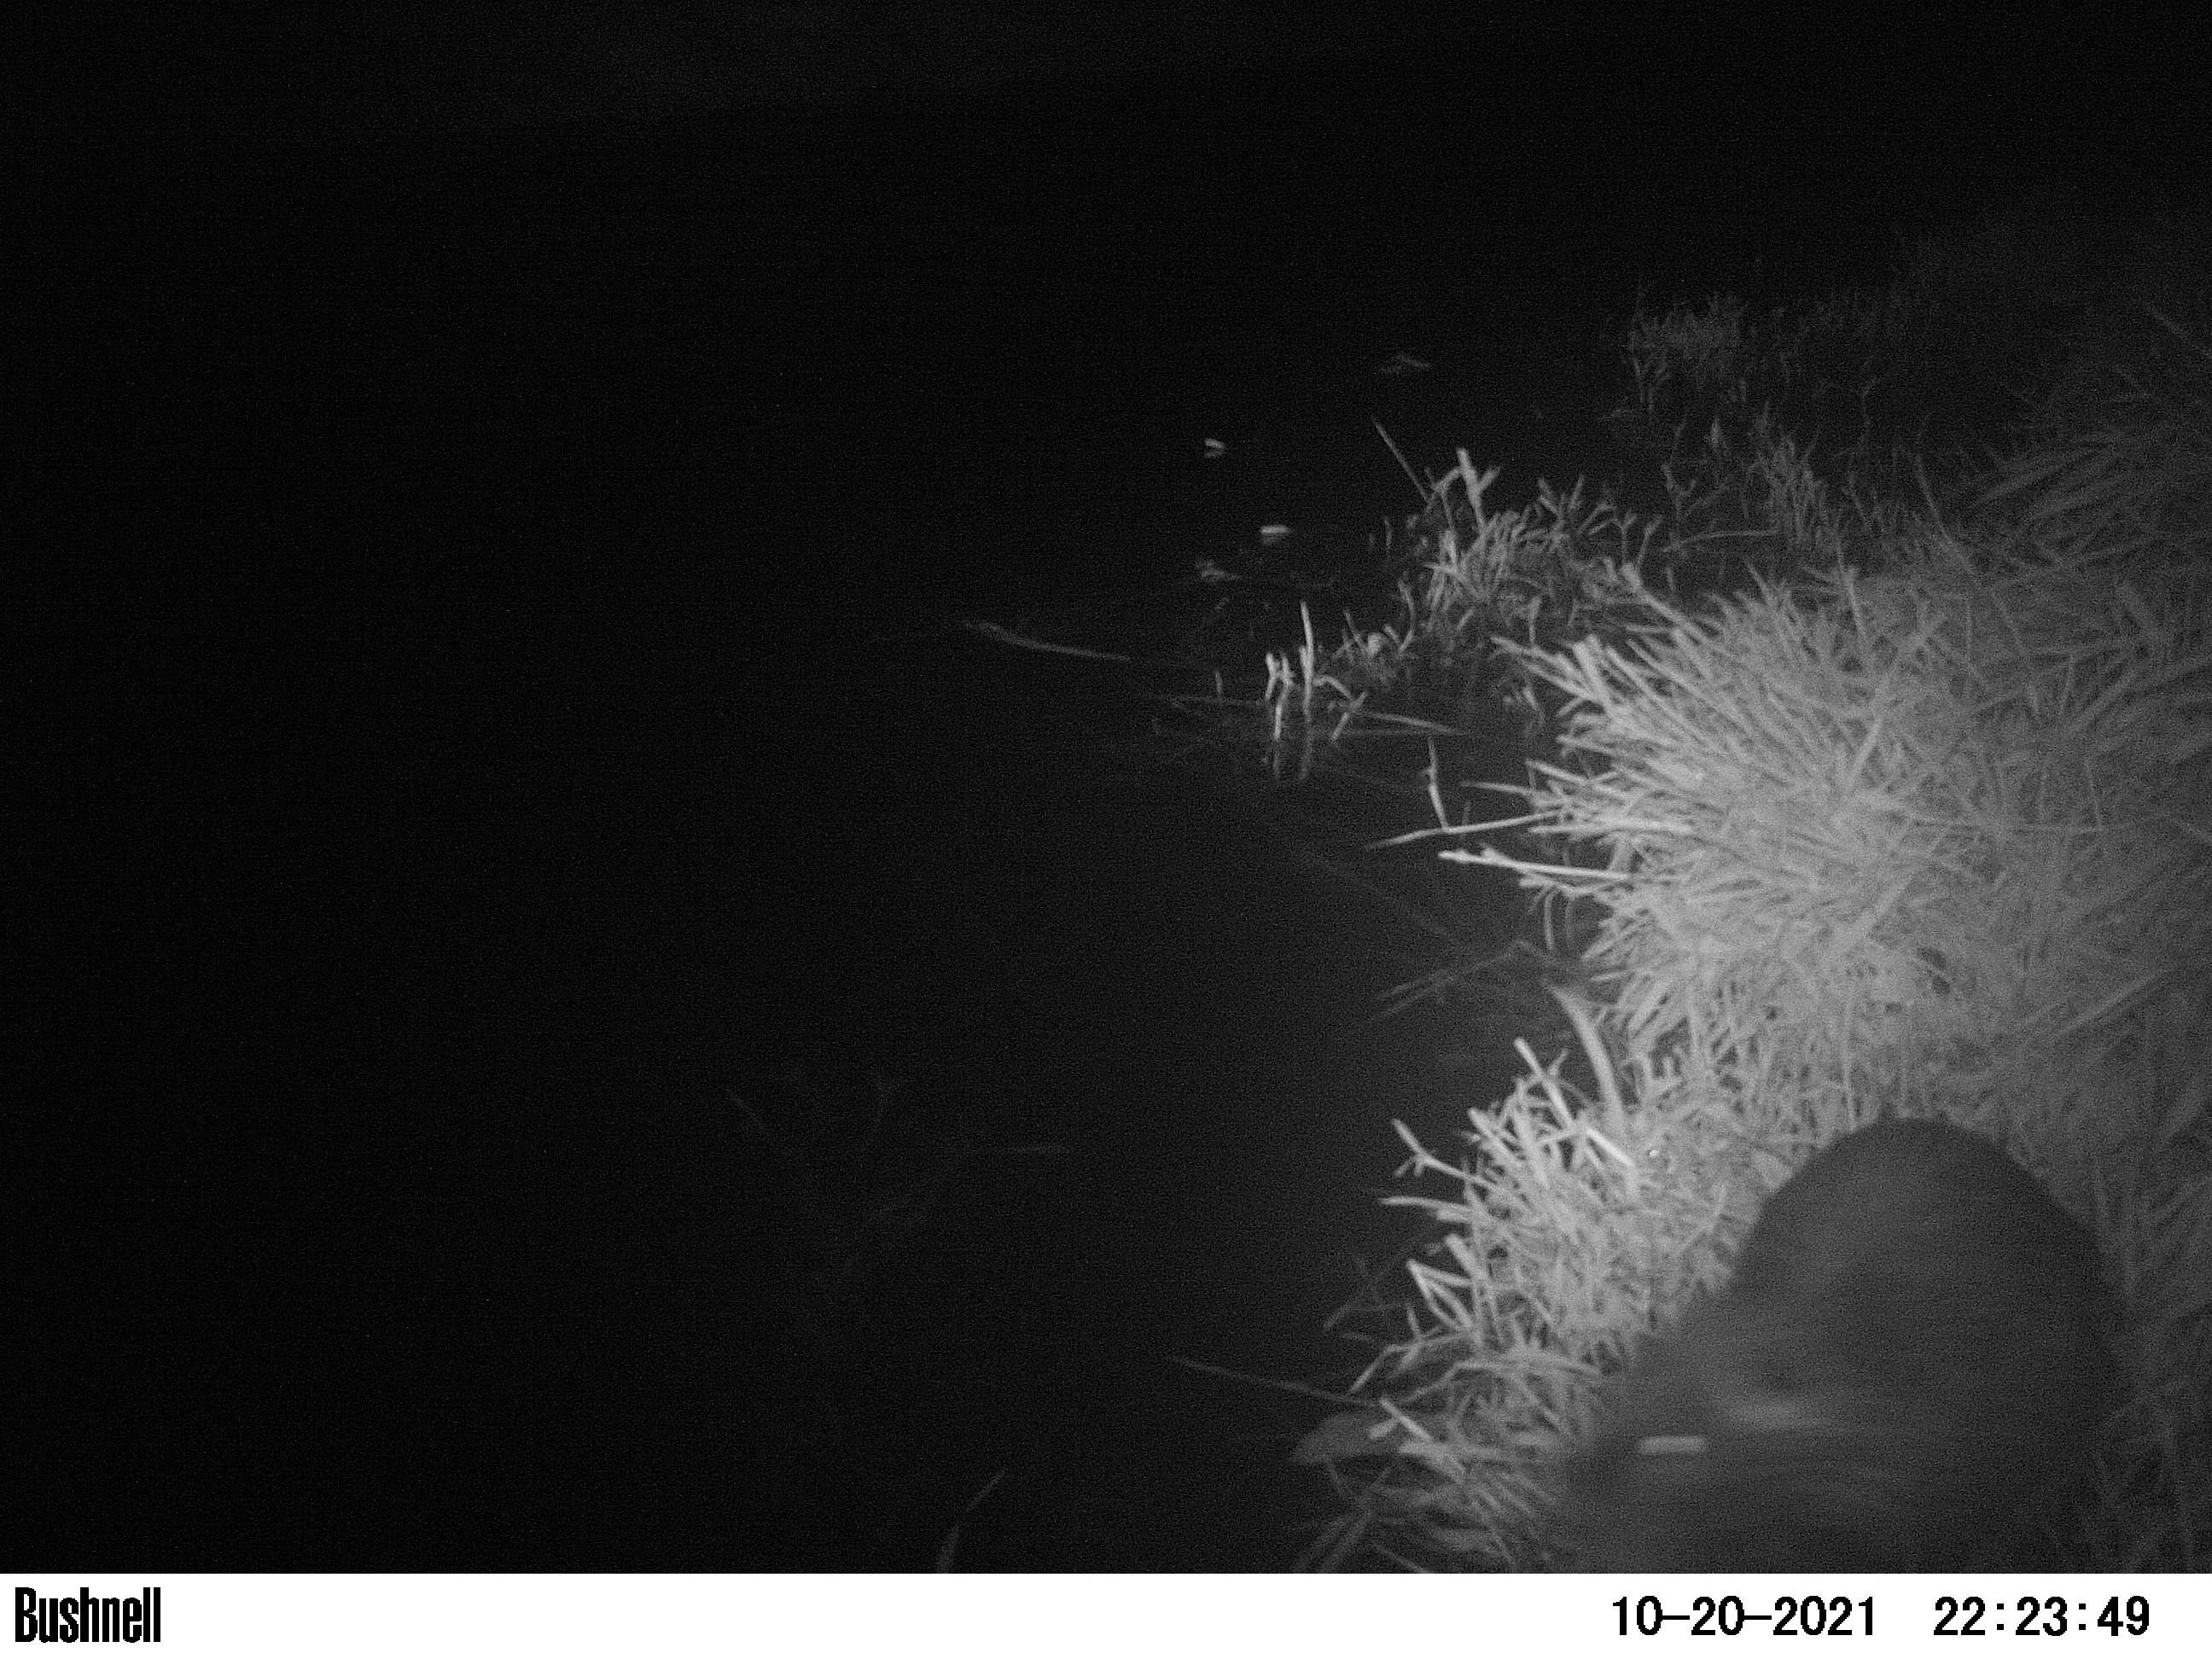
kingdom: Animalia
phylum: Chordata
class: Mammalia
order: Rodentia
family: Myocastoridae
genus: Myocastor
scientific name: Myocastor coypus
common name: Coypu
